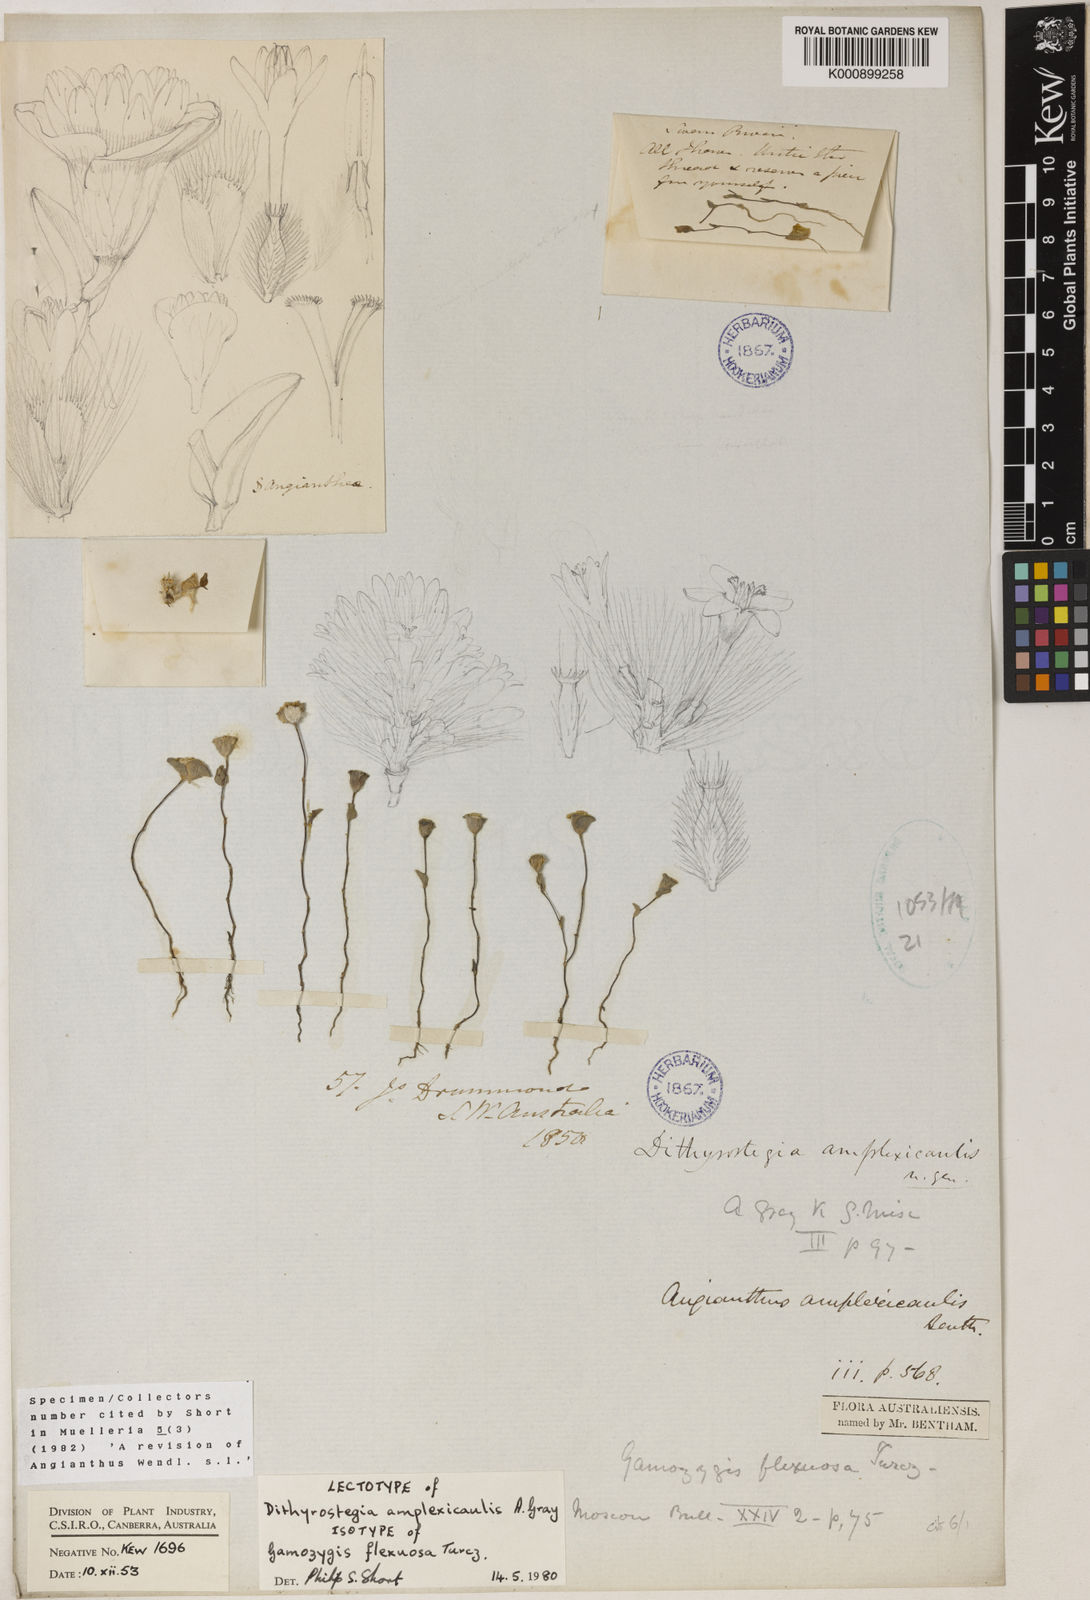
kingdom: Plantae
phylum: Tracheophyta
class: Magnoliopsida
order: Asterales
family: Asteraceae
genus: Dithyrostegia
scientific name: Dithyrostegia amplexicaulis
